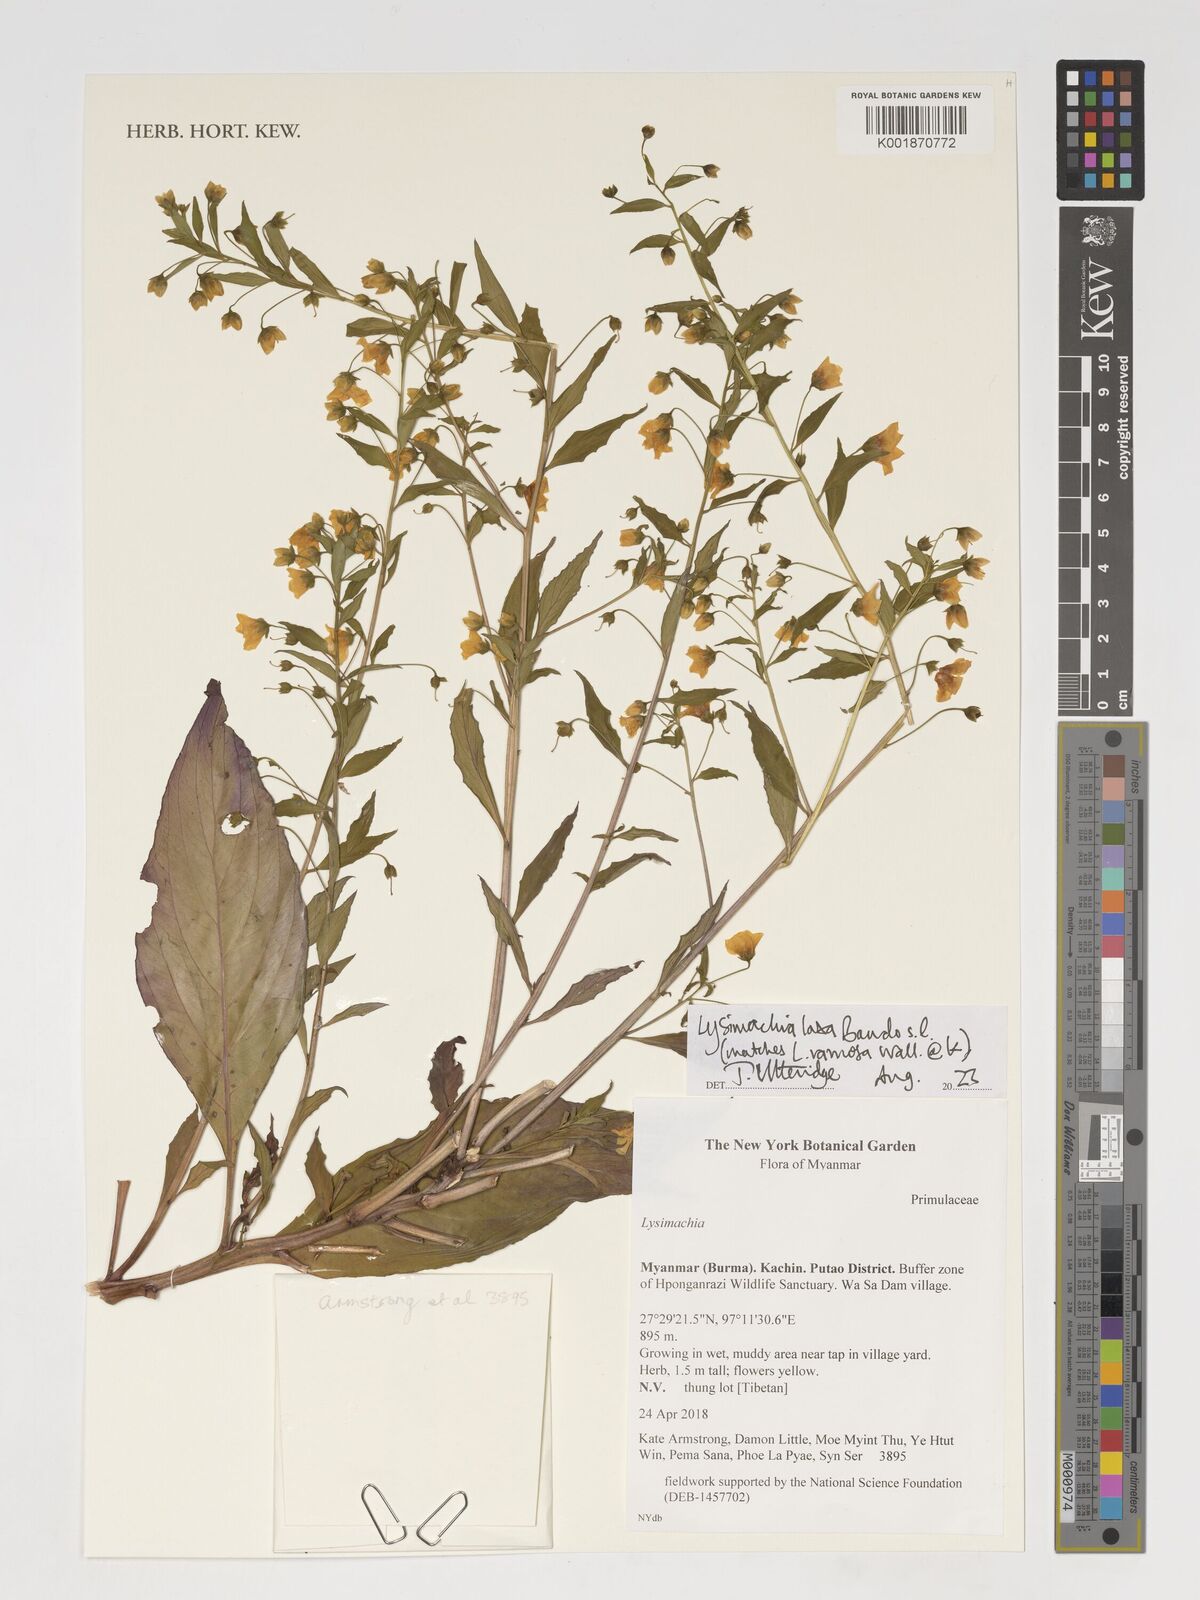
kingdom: Plantae
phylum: Tracheophyta
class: Magnoliopsida
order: Ericales
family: Primulaceae
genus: Lysimachia
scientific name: Lysimachia laxa
